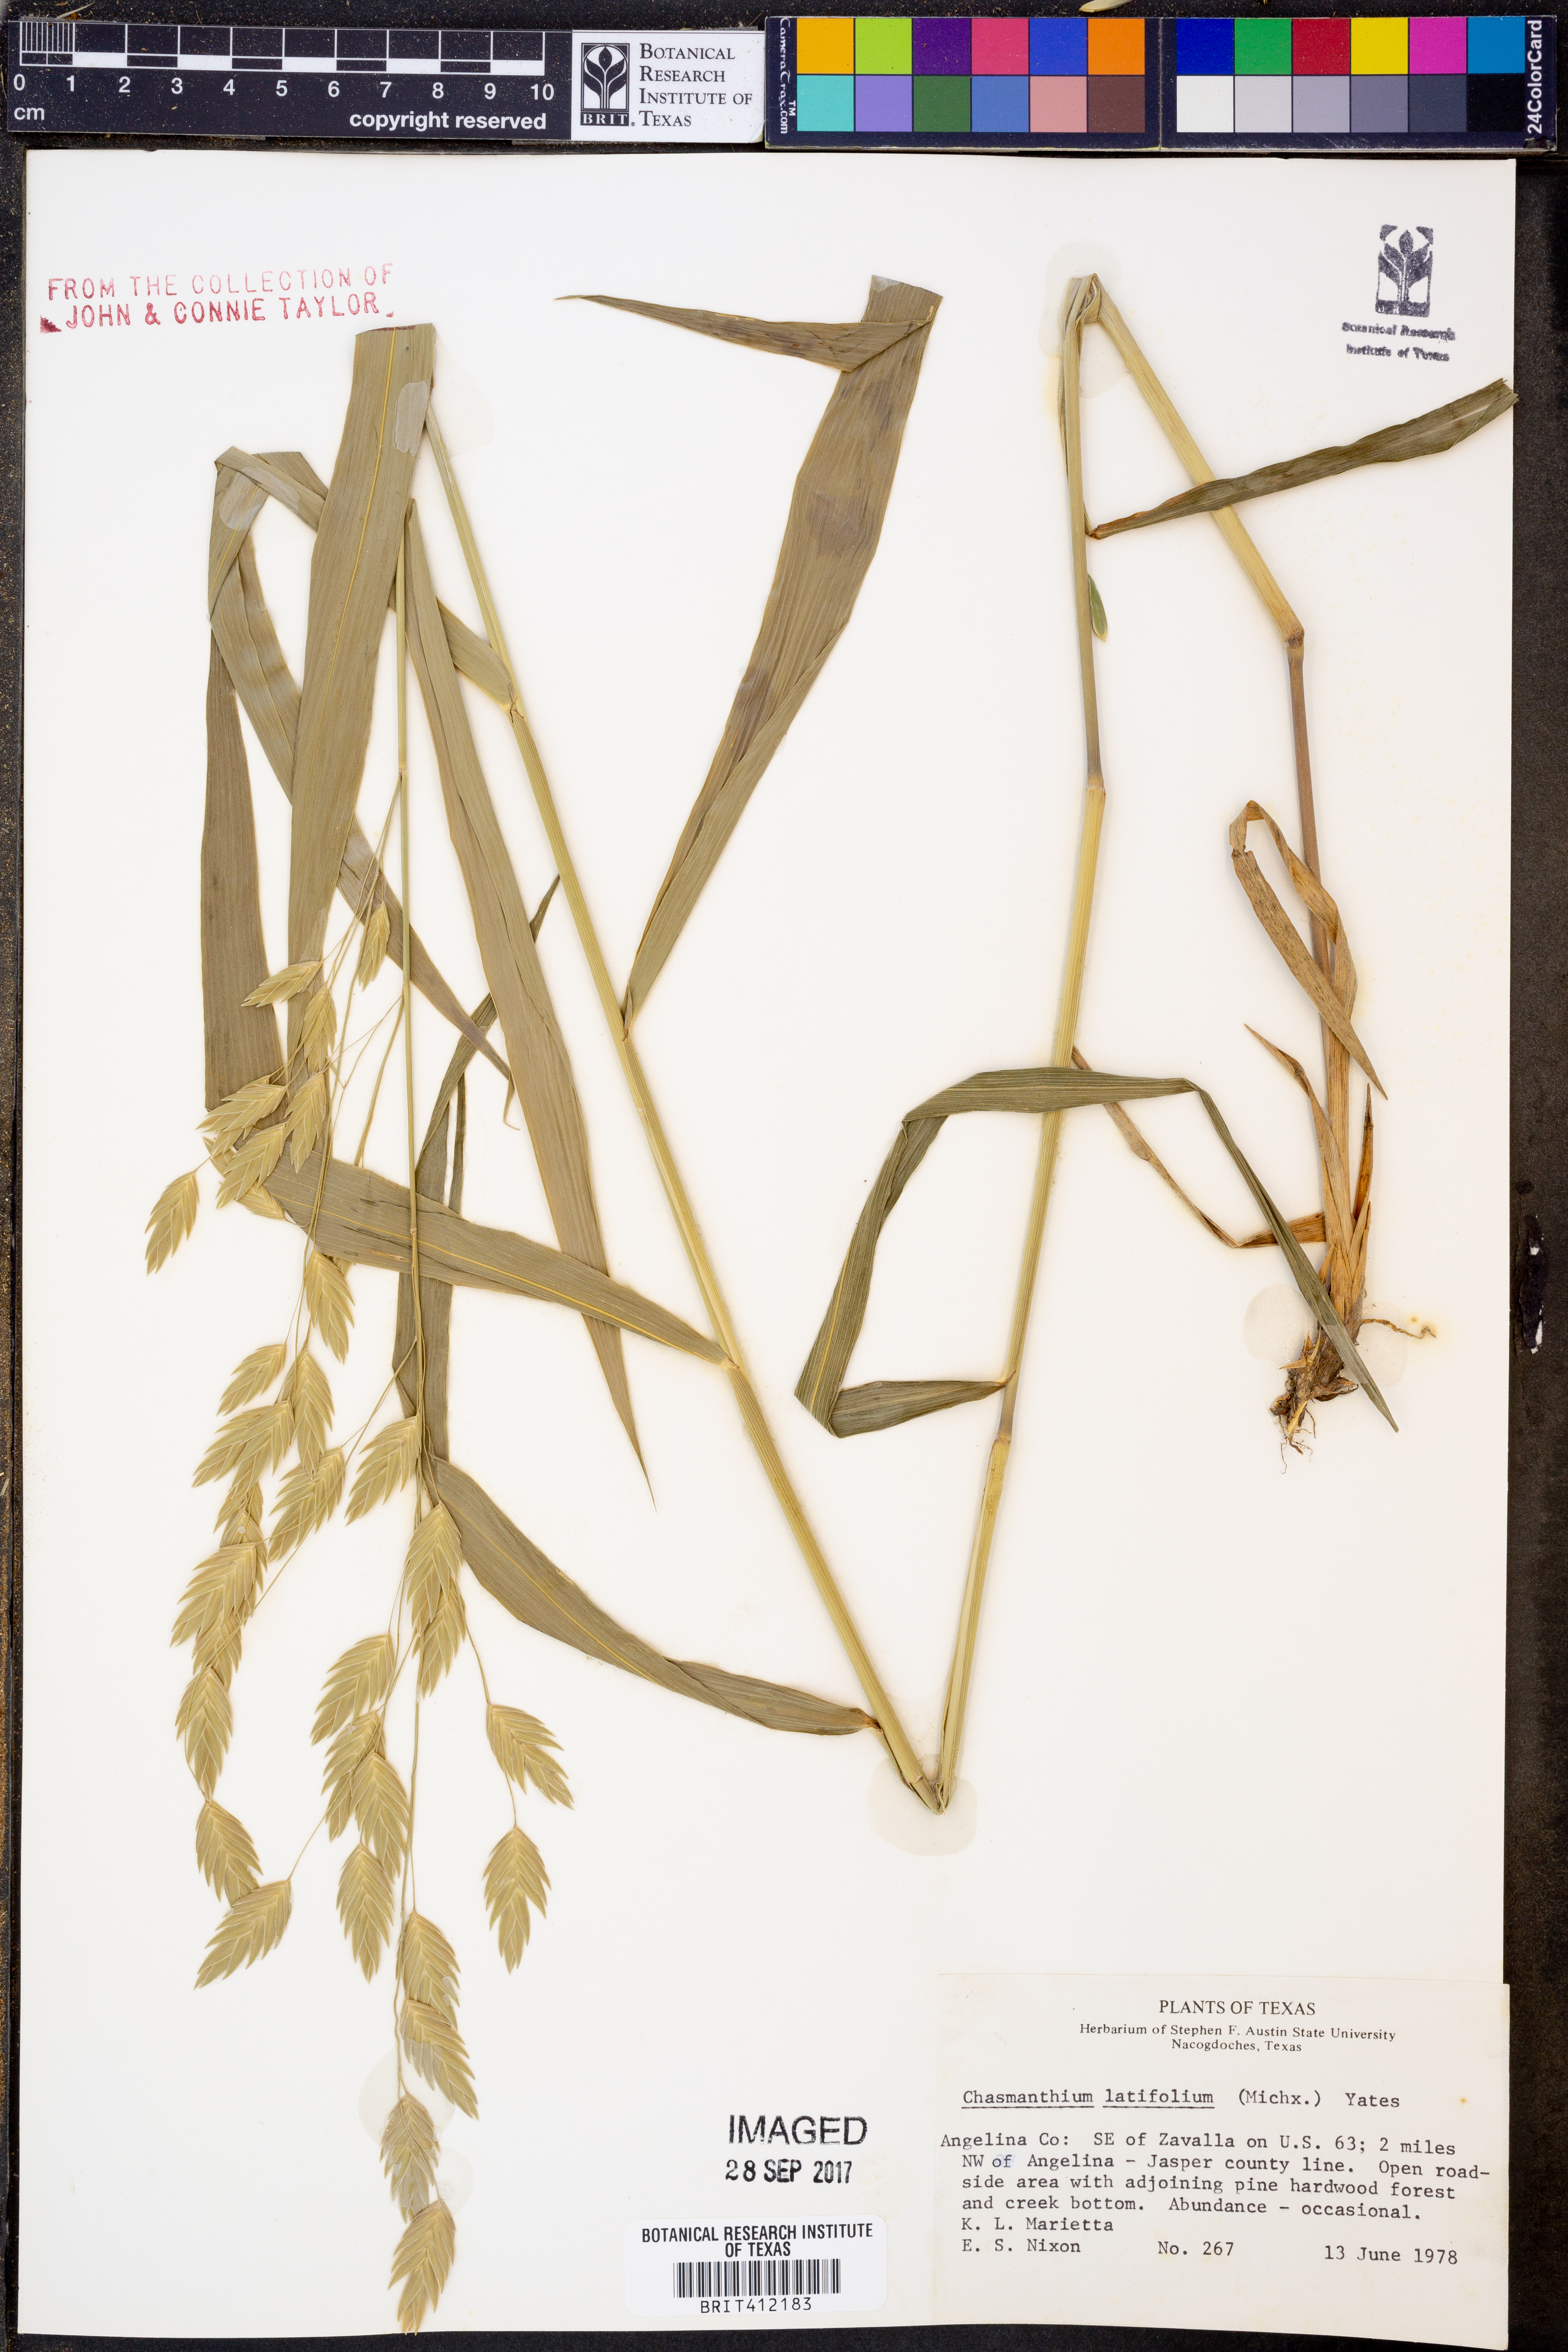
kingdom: Plantae
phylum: Tracheophyta
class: Liliopsida
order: Poales
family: Poaceae
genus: Chasmanthium
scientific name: Chasmanthium latifolium
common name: Broad-leaved chasmanthium
